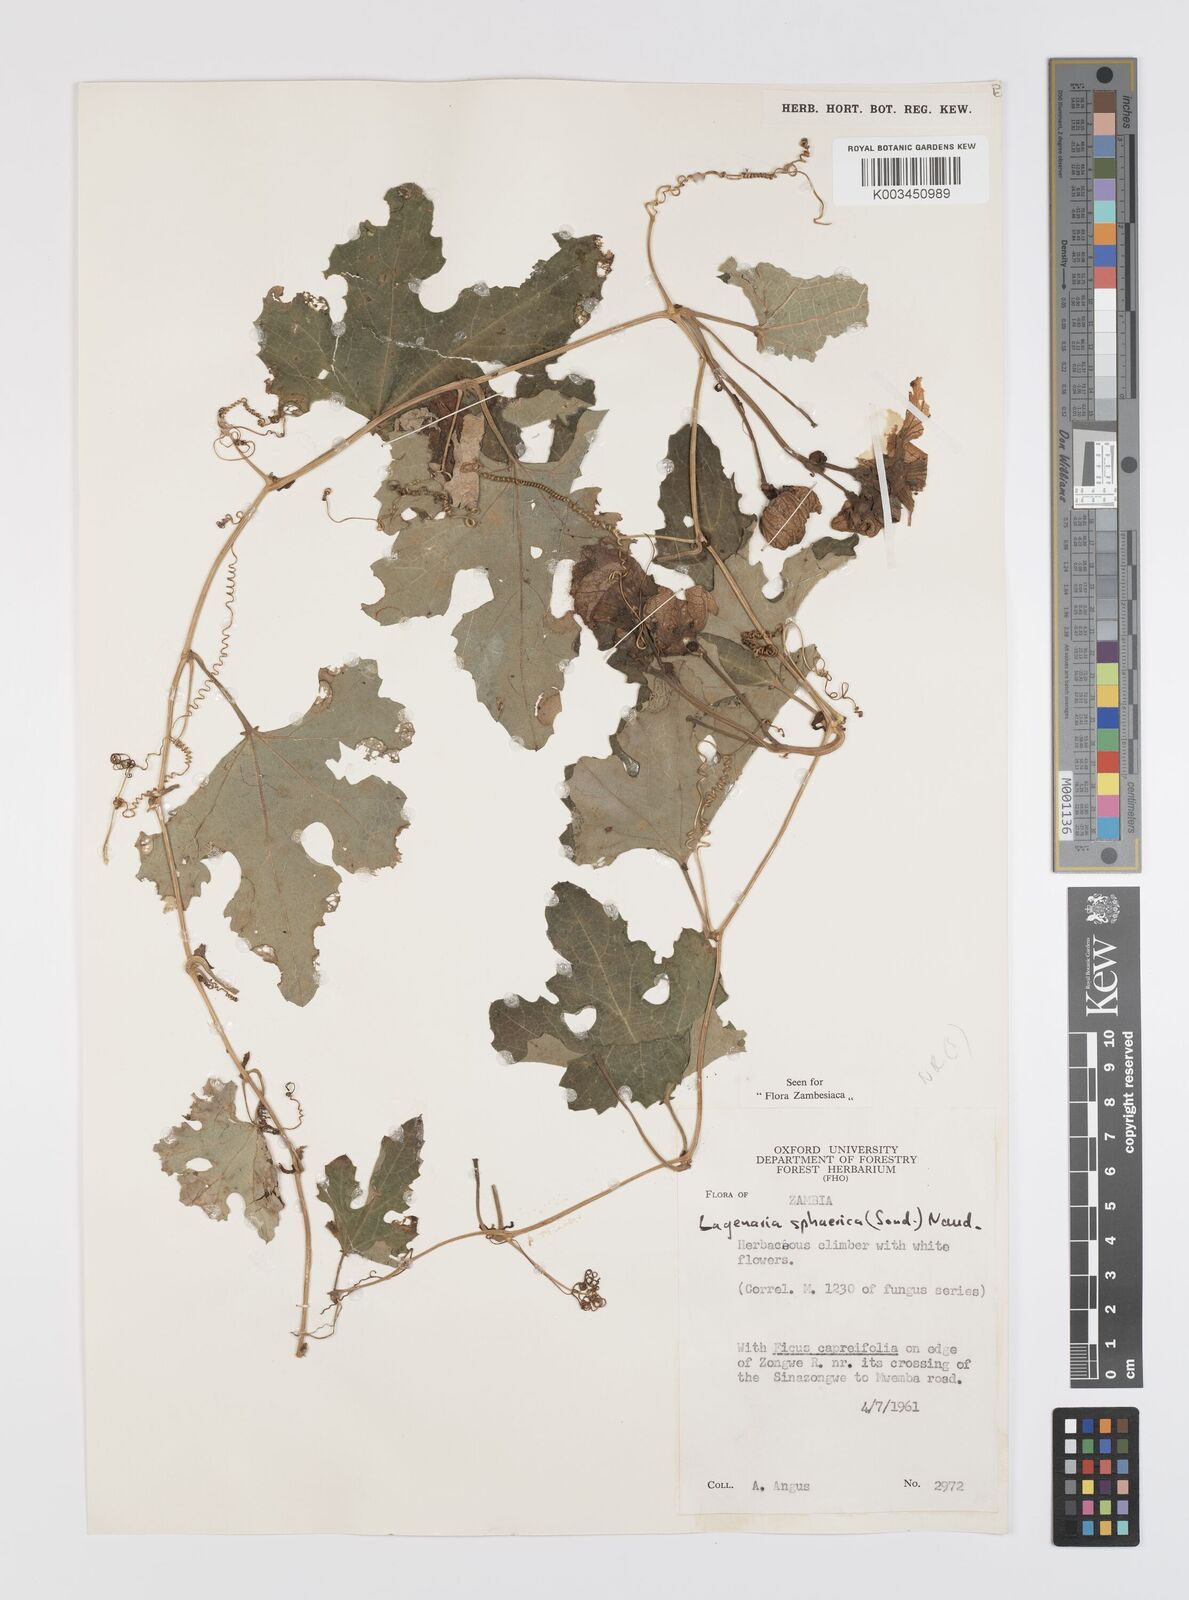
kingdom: Plantae
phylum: Tracheophyta
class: Magnoliopsida
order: Cucurbitales
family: Cucurbitaceae
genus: Lagenaria
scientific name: Lagenaria sphaerica
